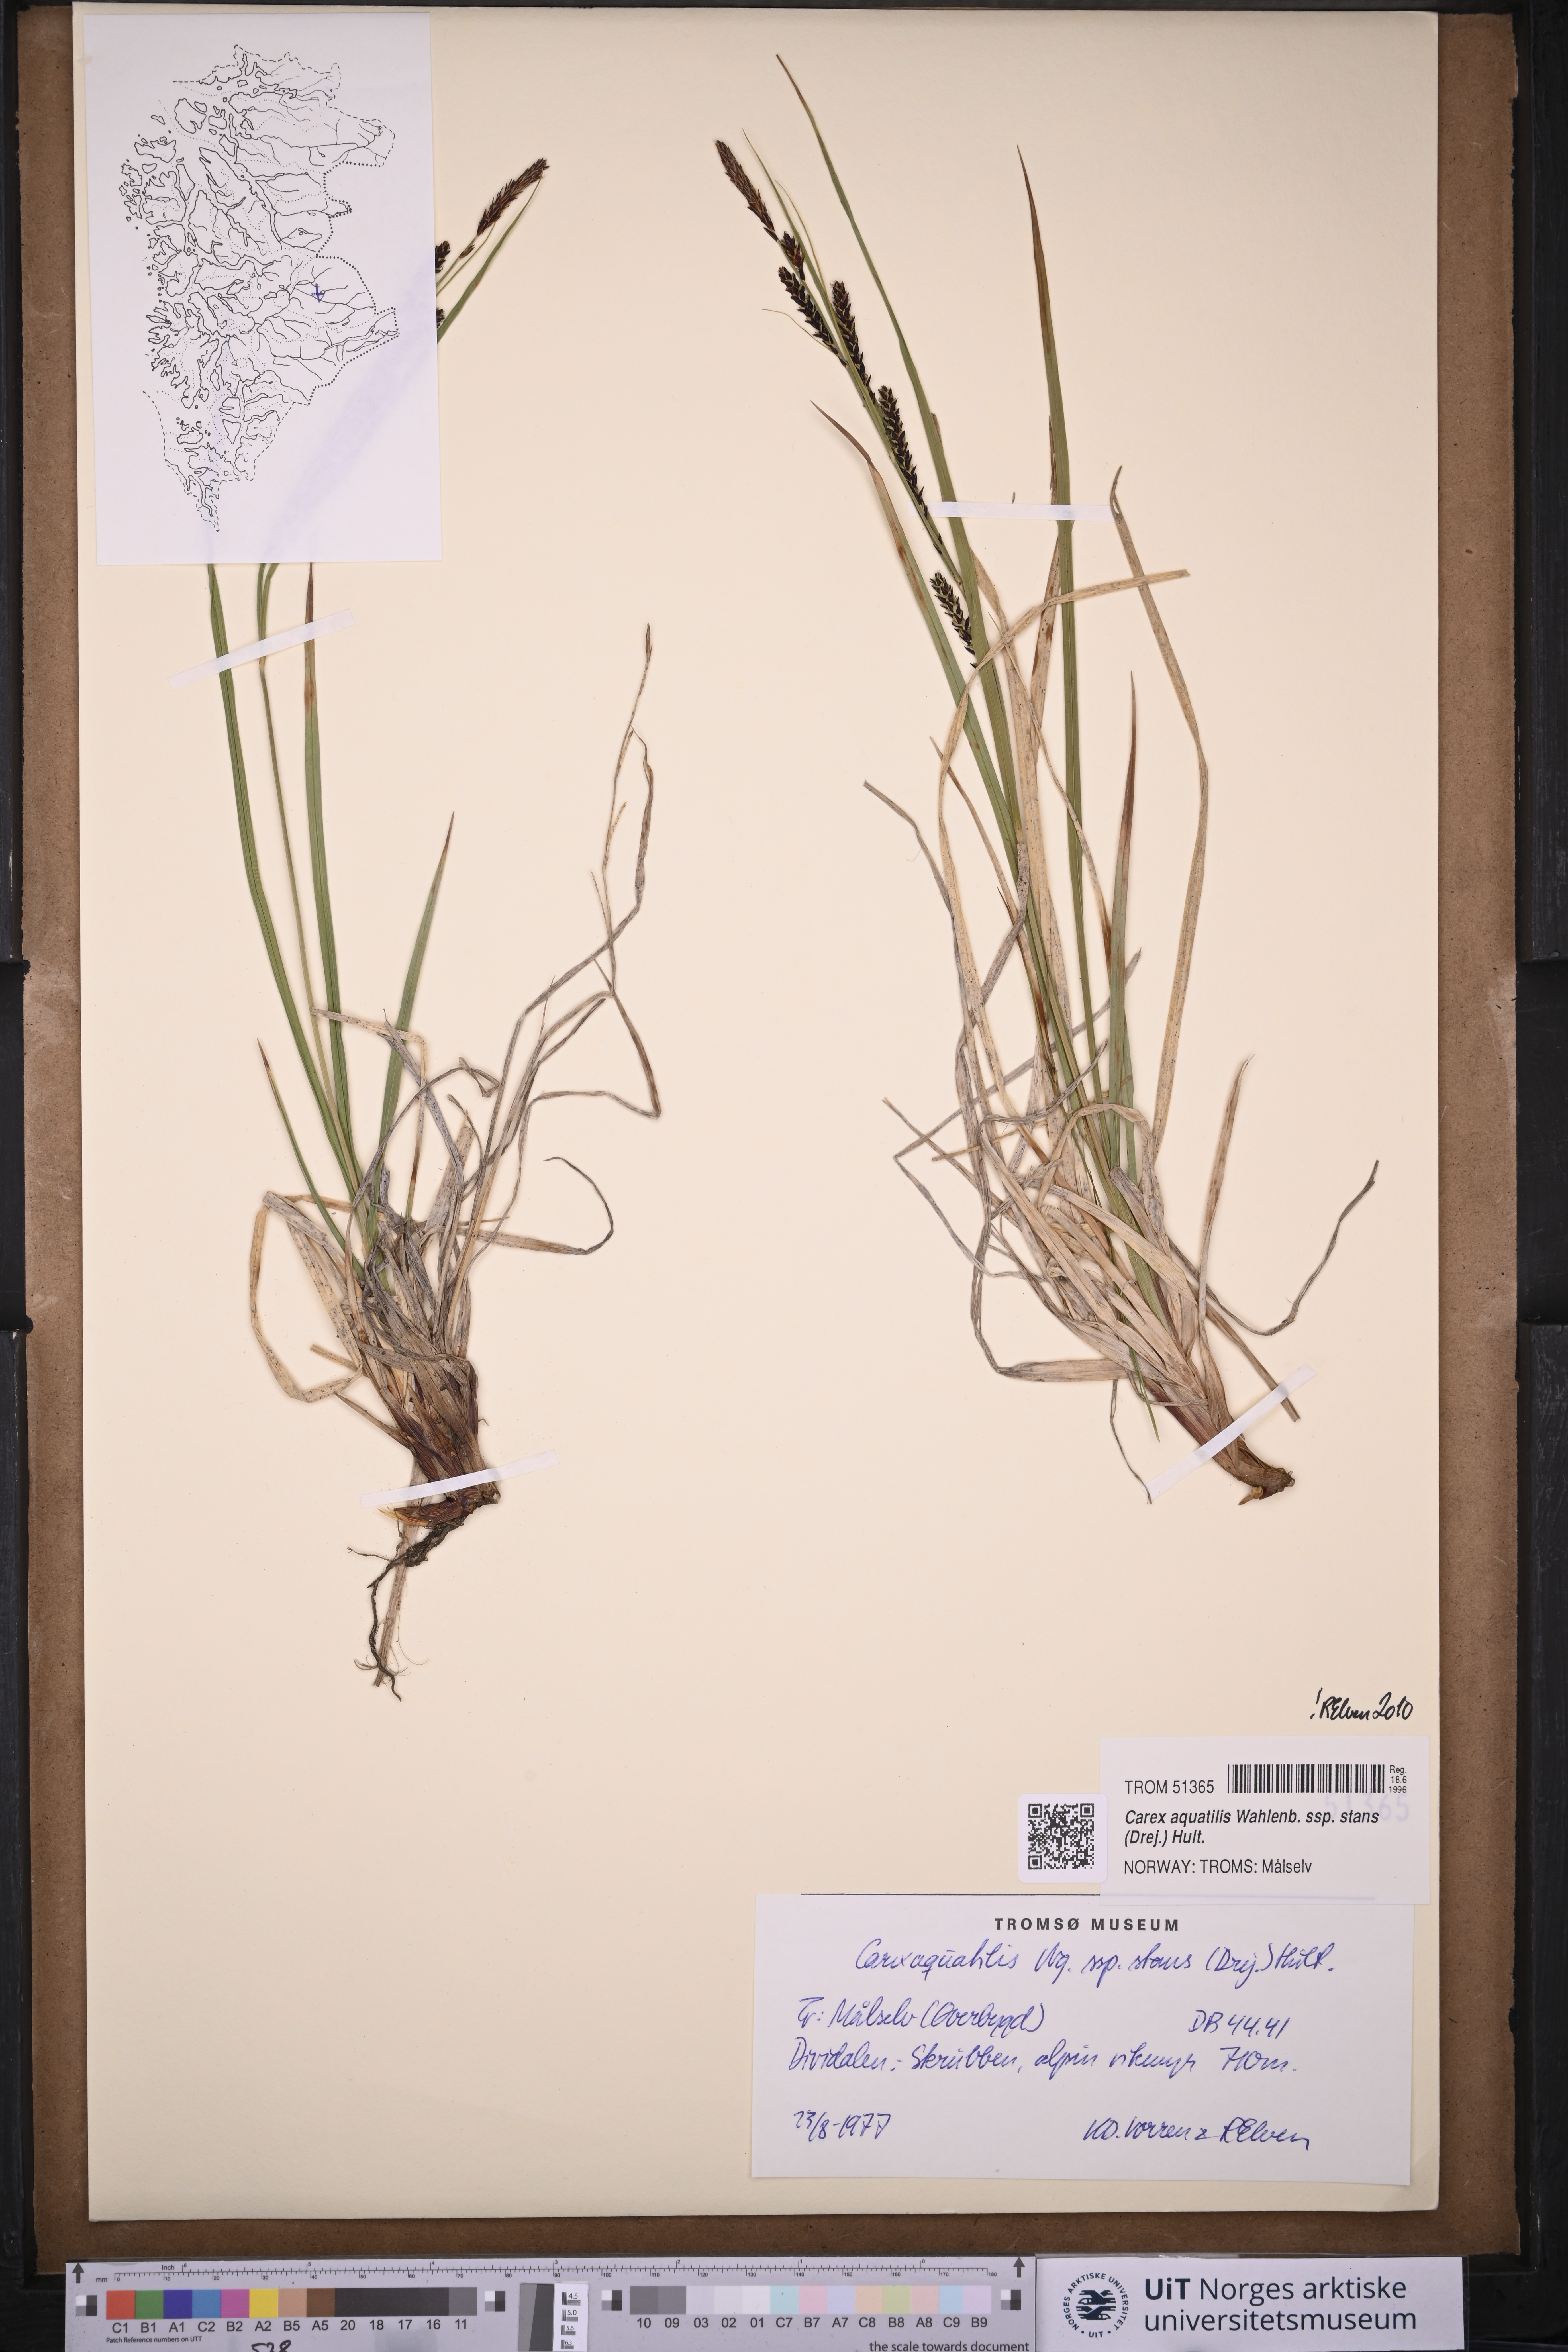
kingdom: Plantae
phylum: Tracheophyta
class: Liliopsida
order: Poales
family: Cyperaceae
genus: Carex
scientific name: Carex aquatilis
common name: Water sedge
